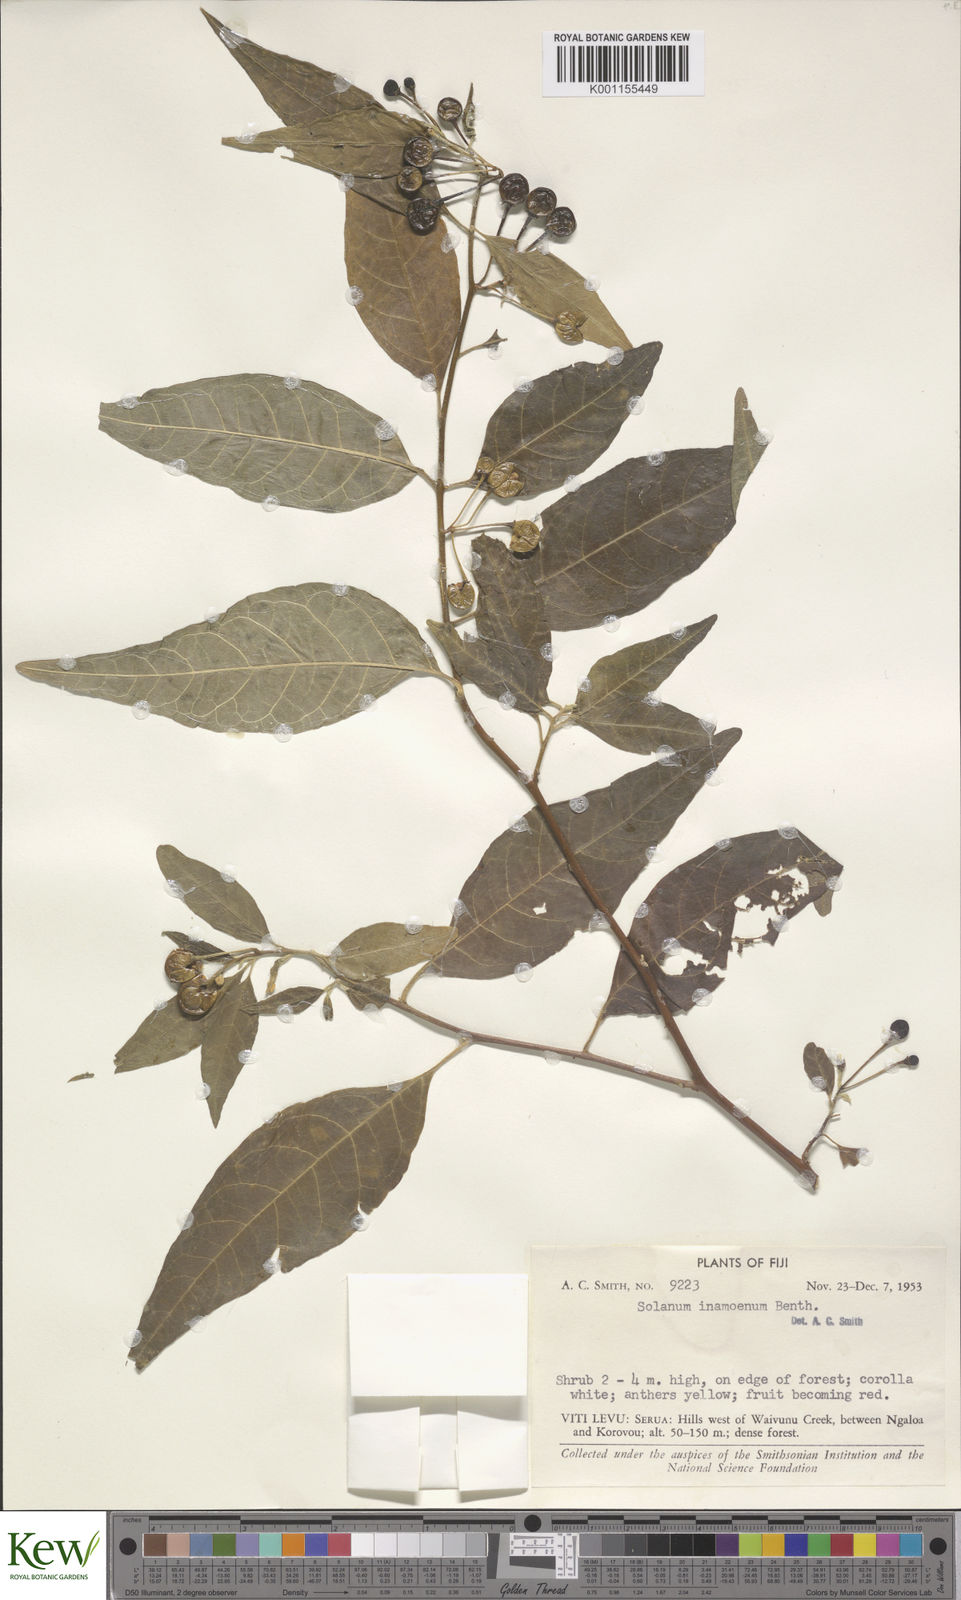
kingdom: Plantae
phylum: Tracheophyta
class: Magnoliopsida
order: Solanales
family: Solanaceae
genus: Solanum
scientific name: Solanum inamoenum
